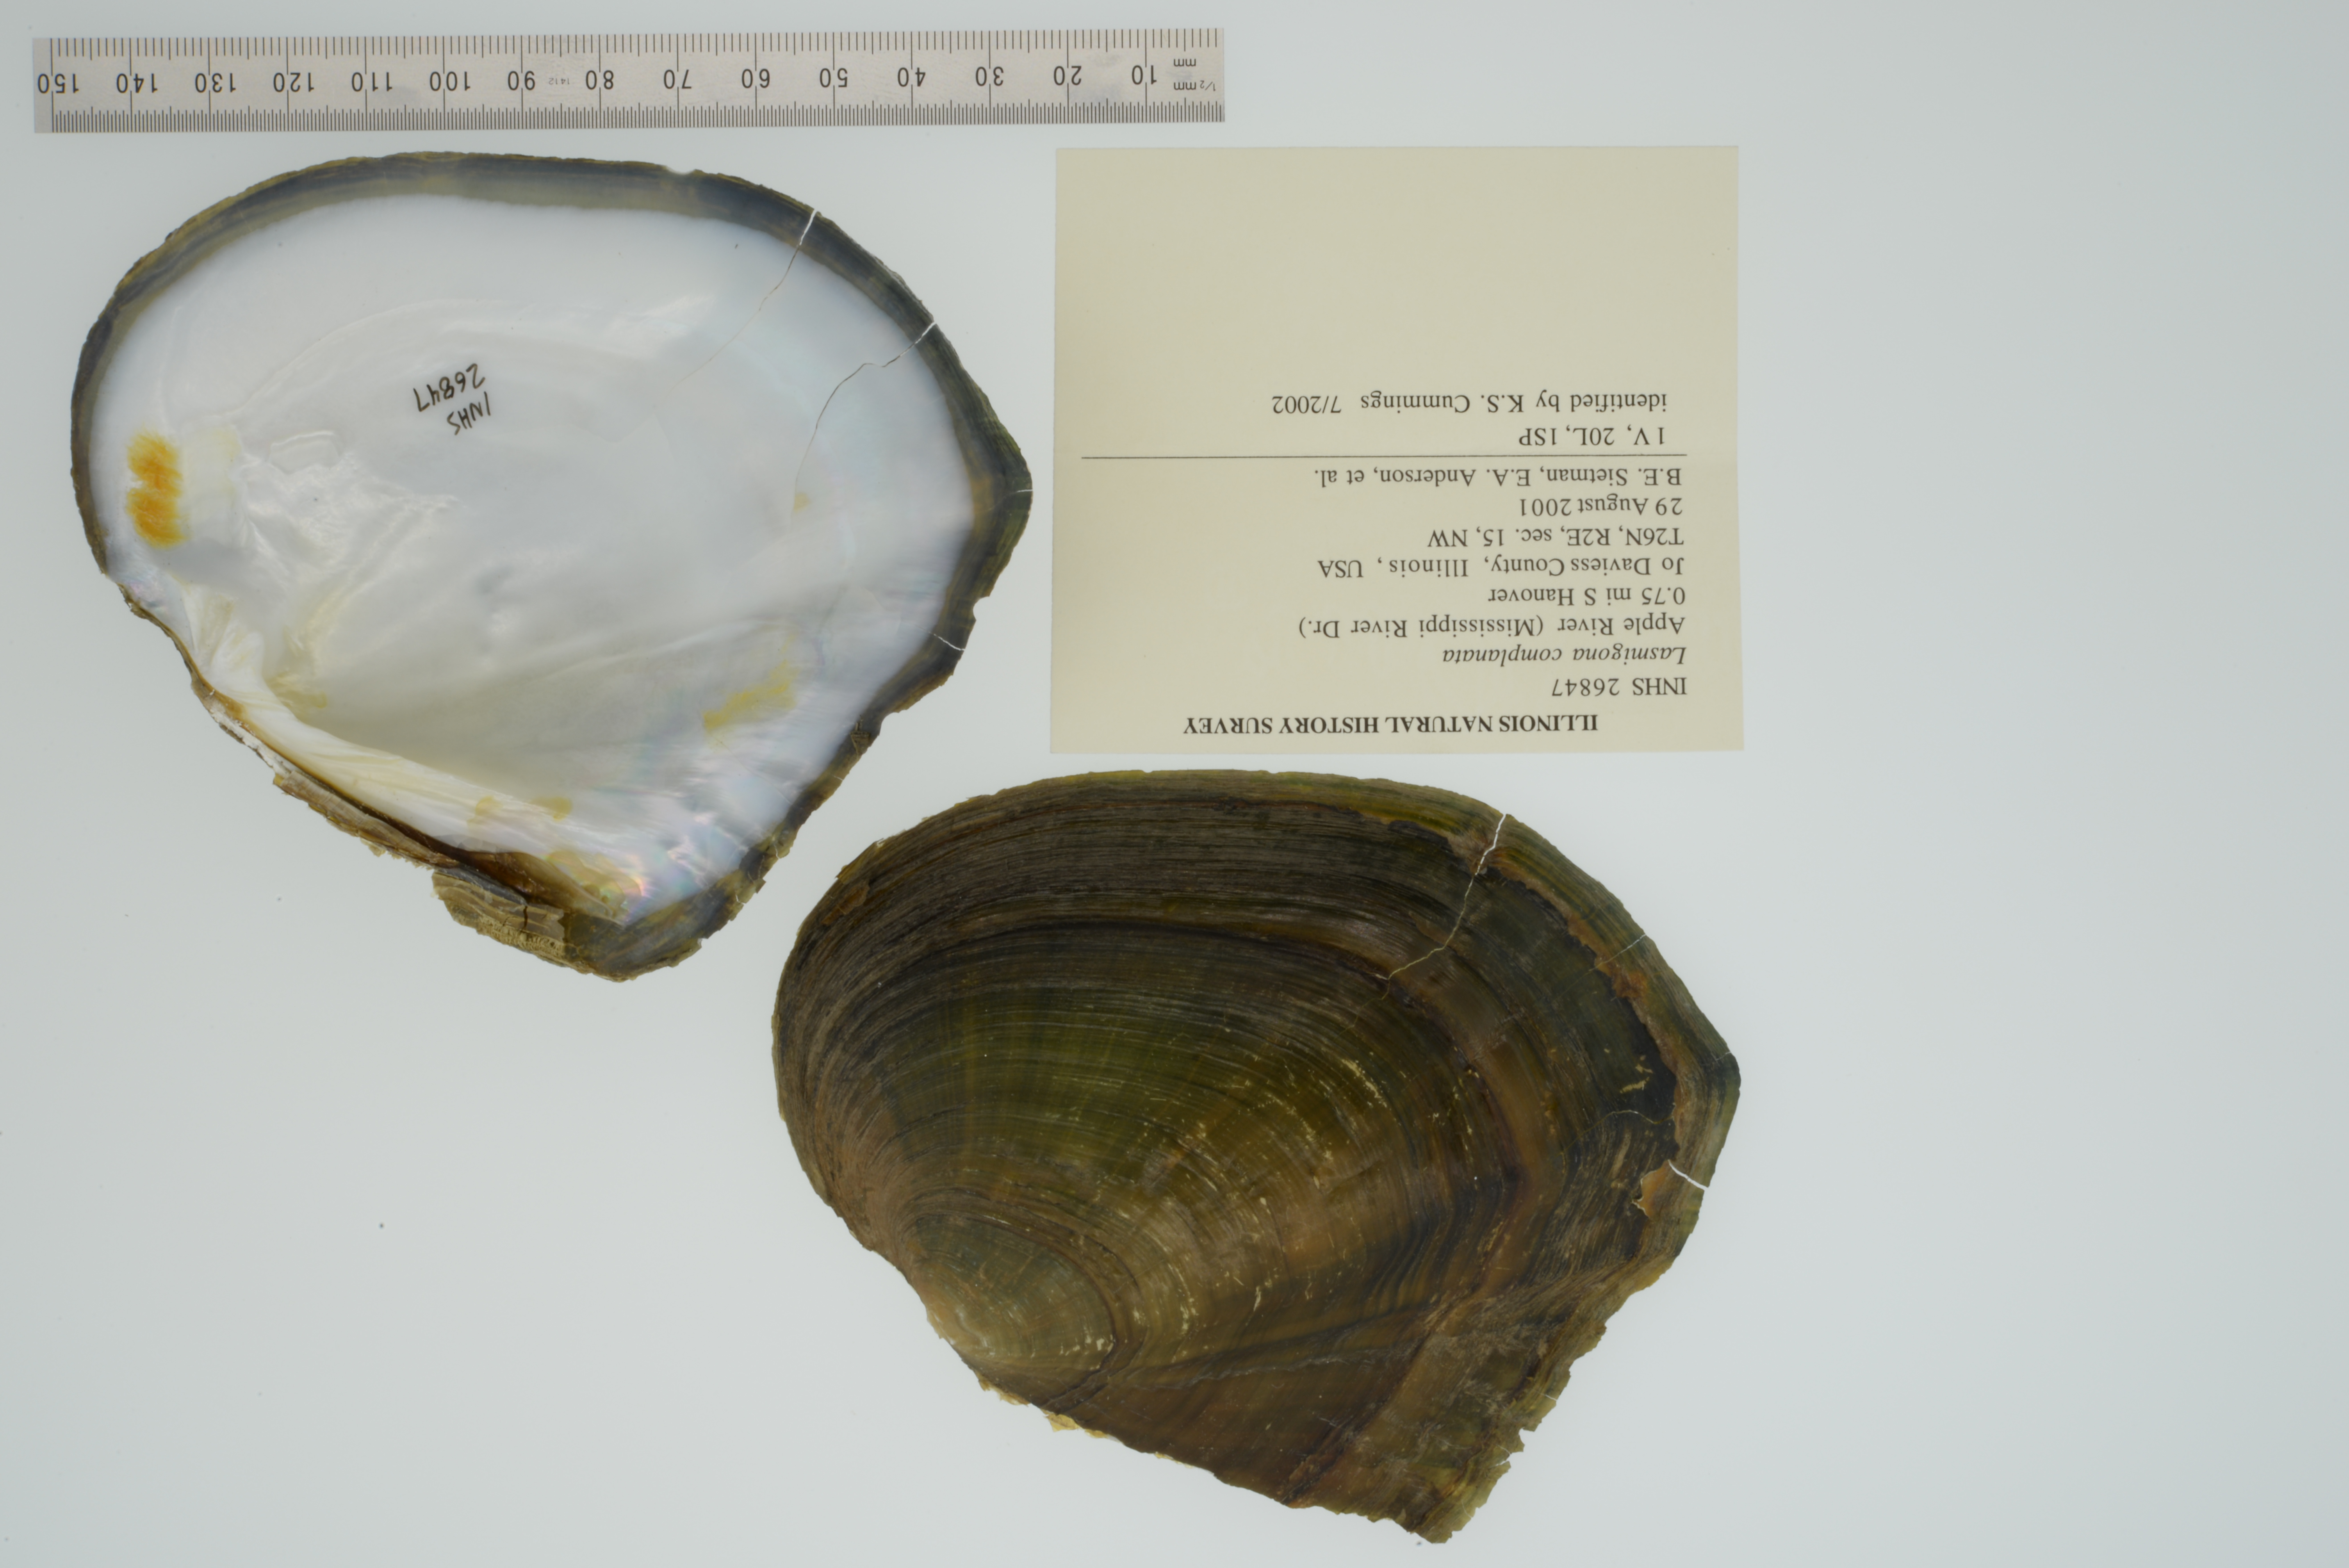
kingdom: Animalia
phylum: Mollusca
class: Bivalvia
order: Unionida
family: Unionidae
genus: Lasmigona
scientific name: Lasmigona complanata
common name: White heelsplitter
